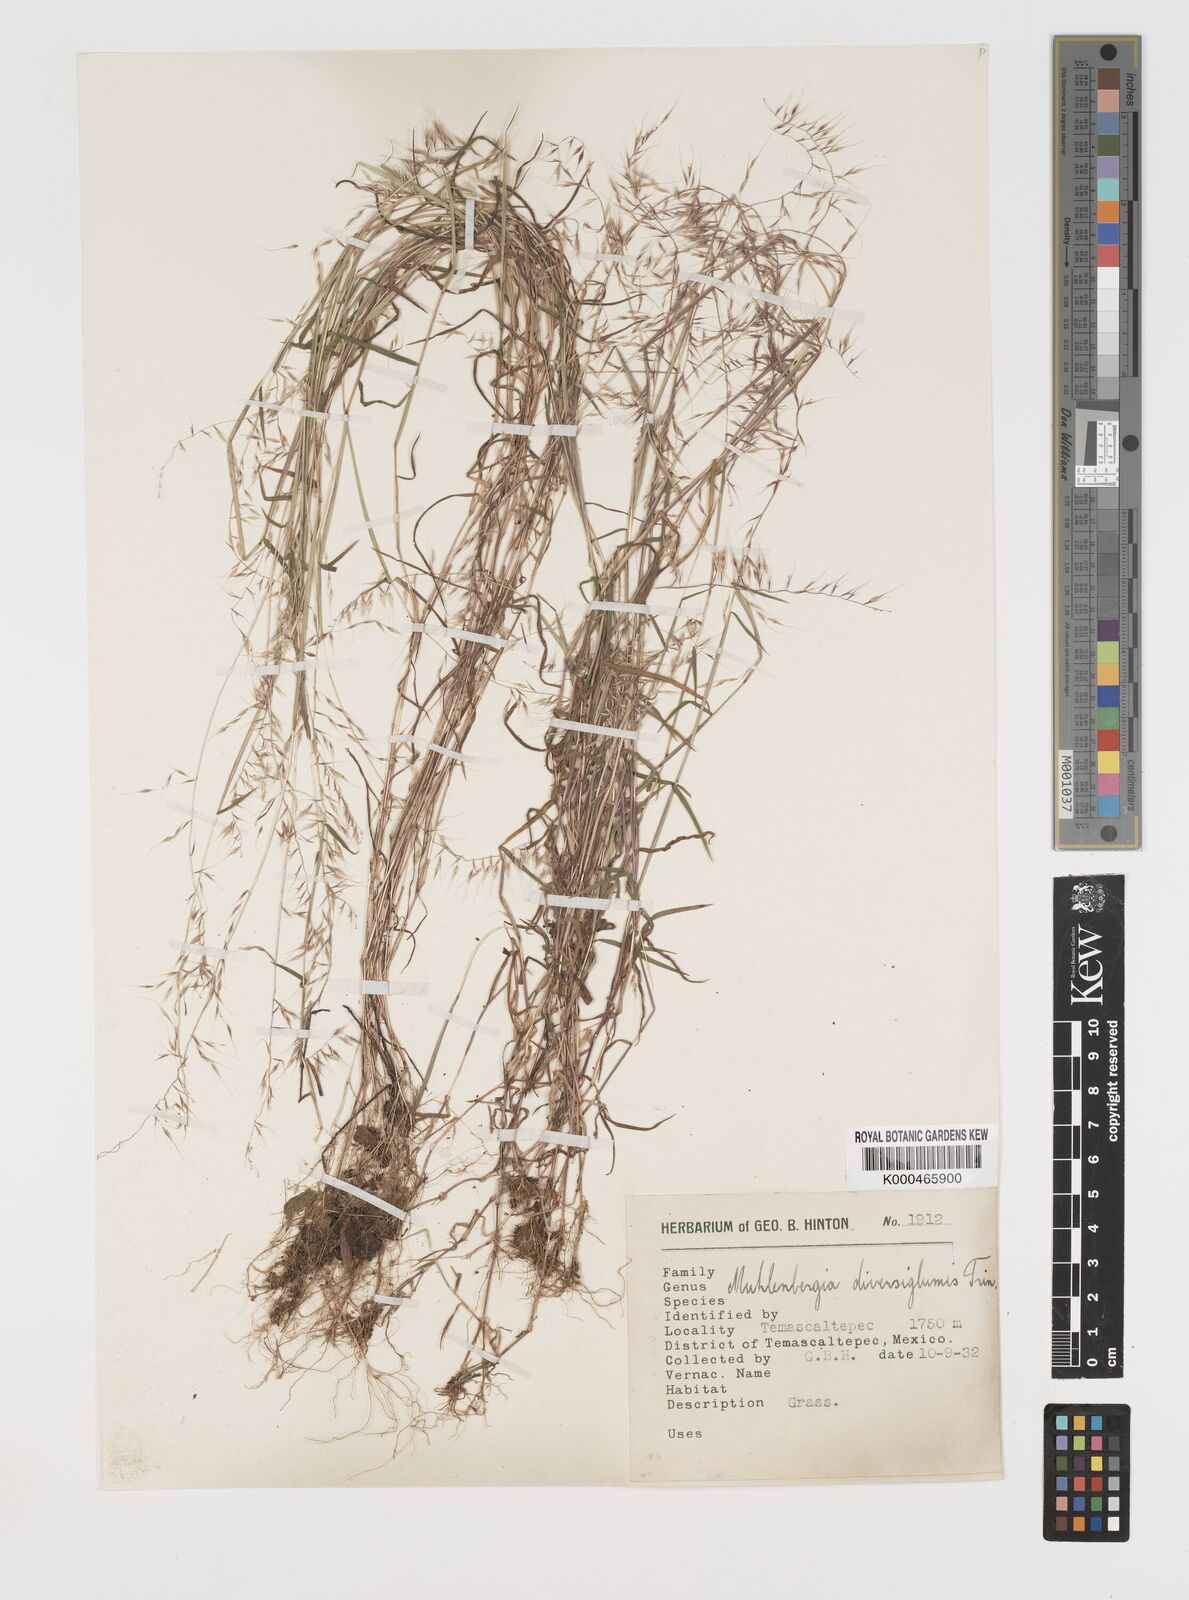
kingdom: Plantae
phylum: Tracheophyta
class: Liliopsida
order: Poales
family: Poaceae
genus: Muhlenbergia
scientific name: Muhlenbergia diversiglumis
